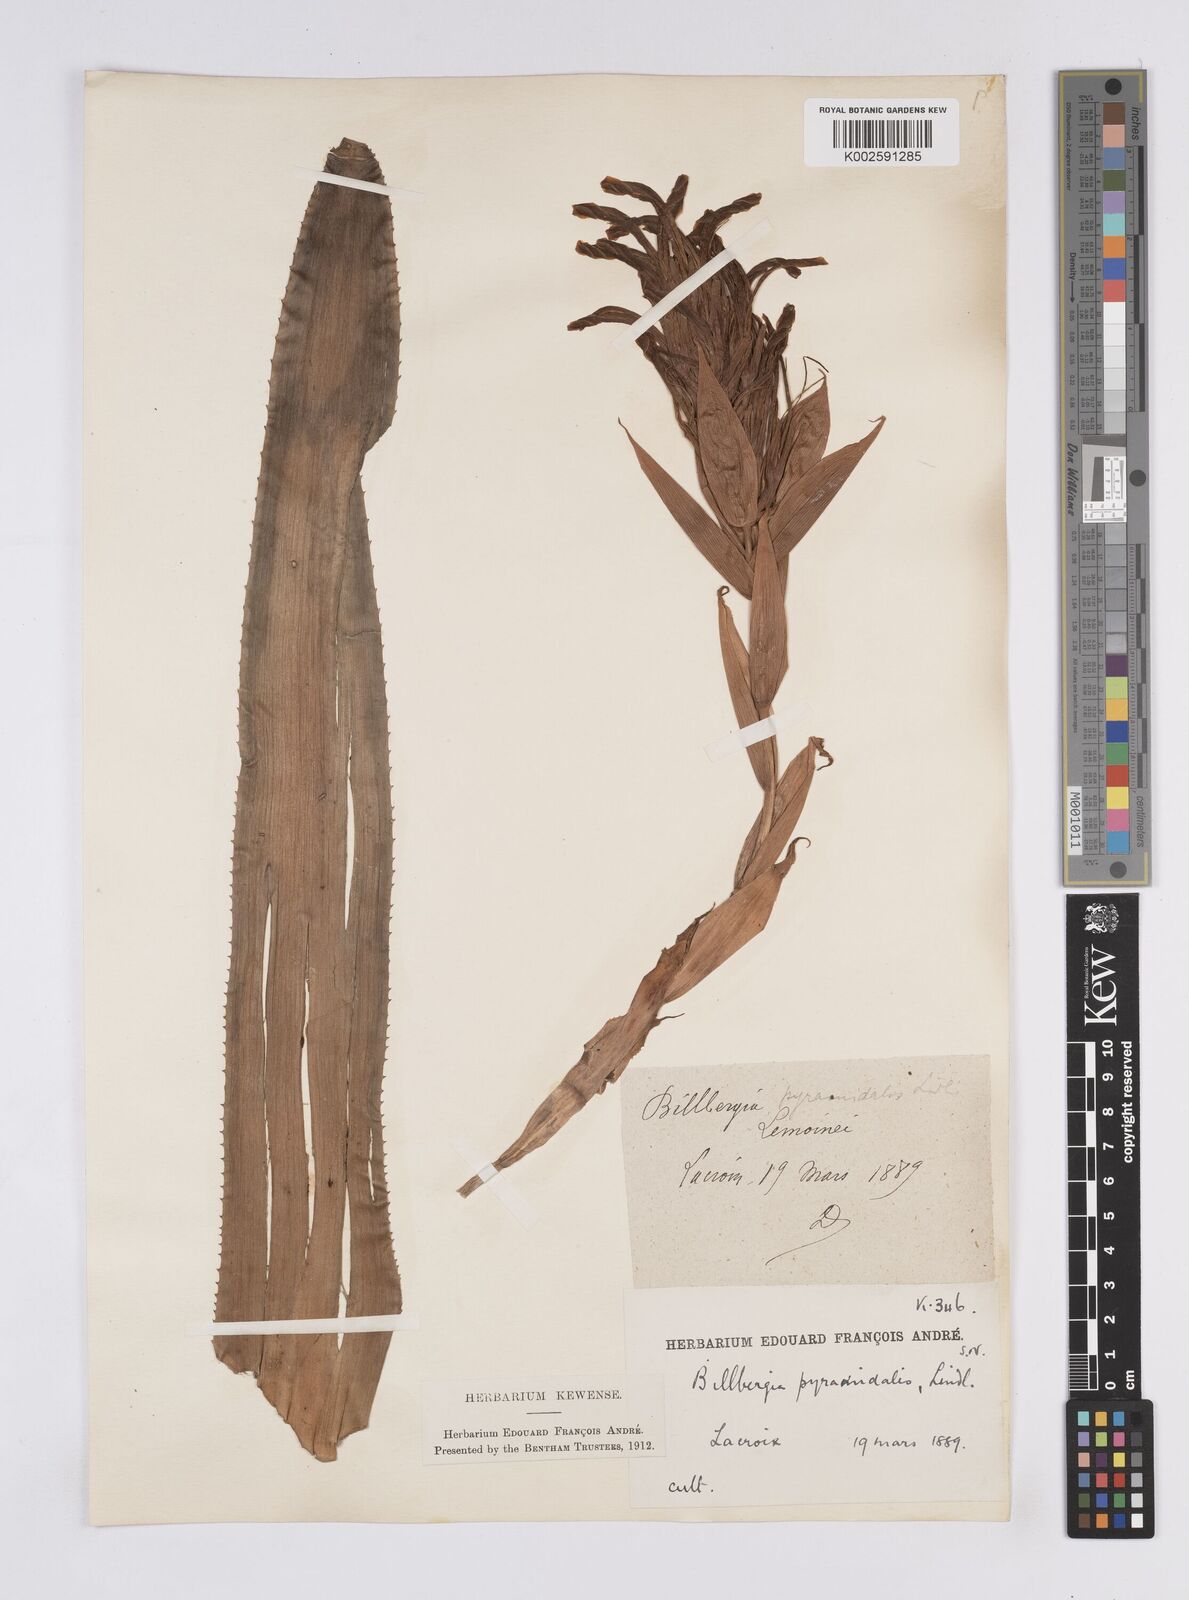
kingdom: Plantae
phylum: Tracheophyta
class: Liliopsida
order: Poales
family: Bromeliaceae
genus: Billbergia
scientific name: Billbergia pyramidalis
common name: Foolproofplant
